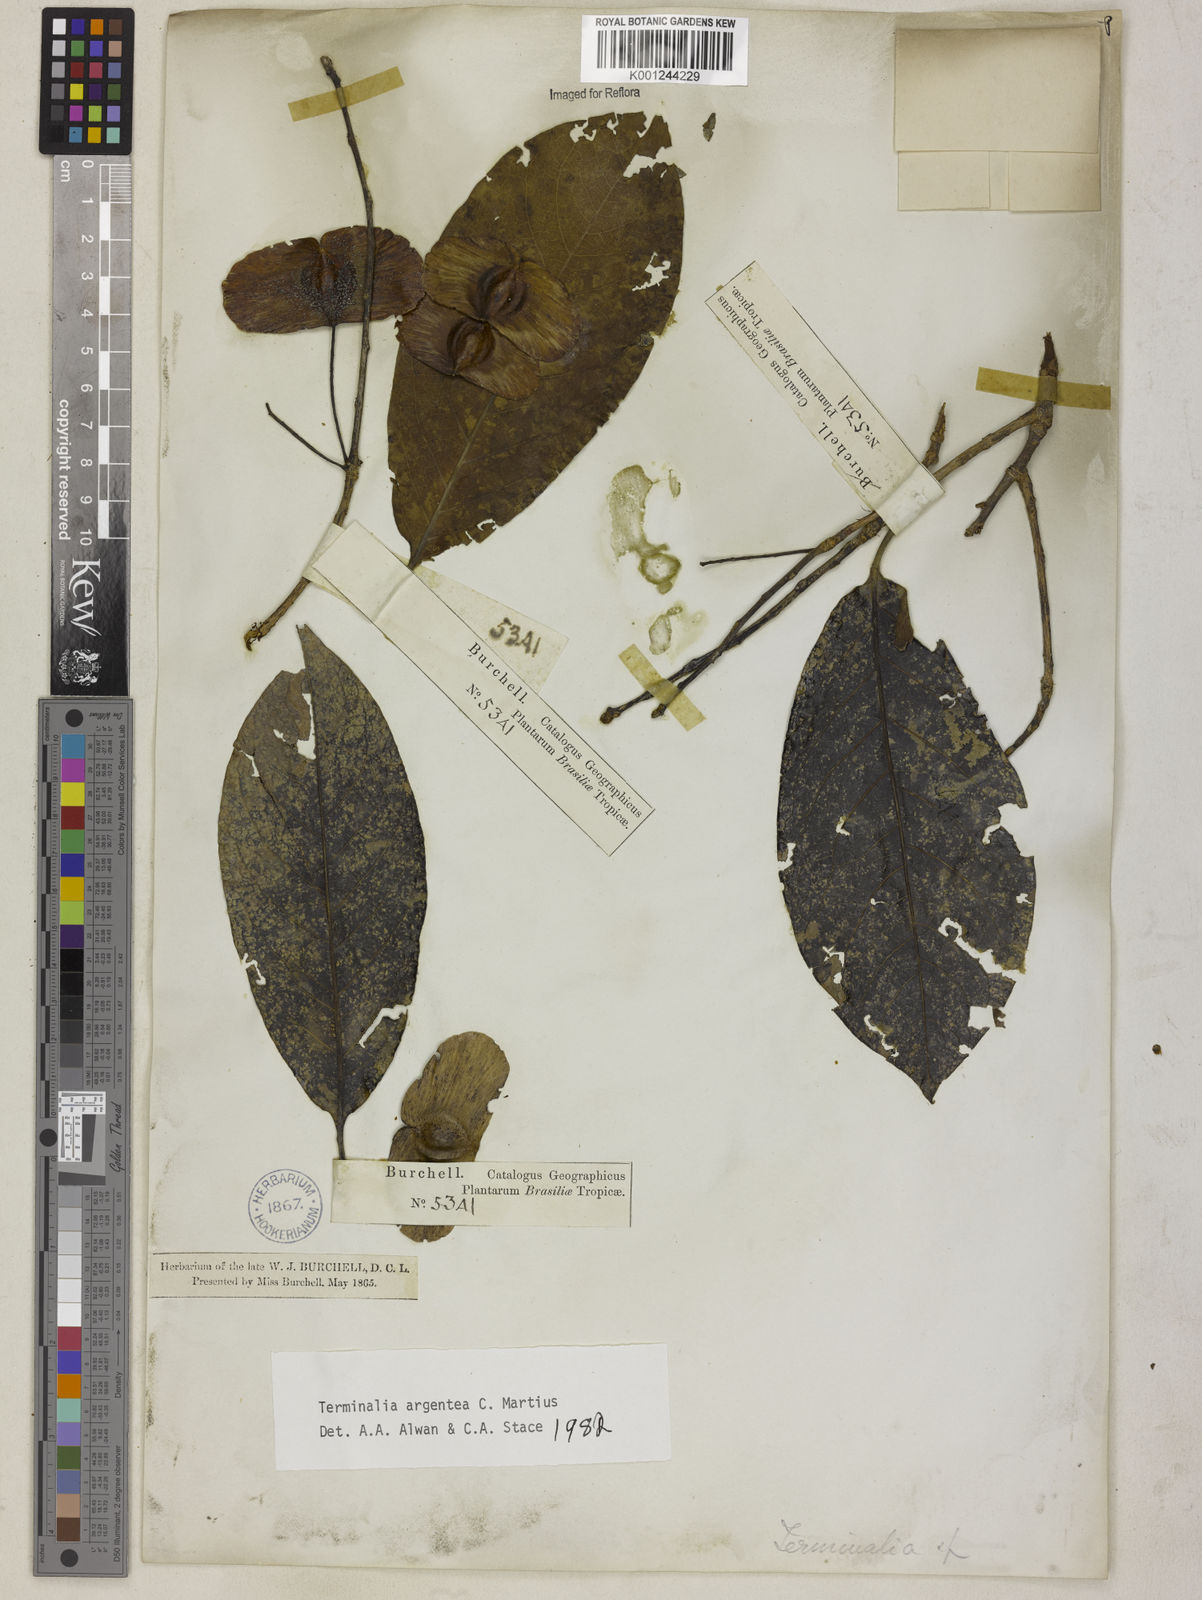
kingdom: Plantae
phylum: Tracheophyta
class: Magnoliopsida
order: Myrtales
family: Combretaceae
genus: Terminalia
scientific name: Terminalia argentea
